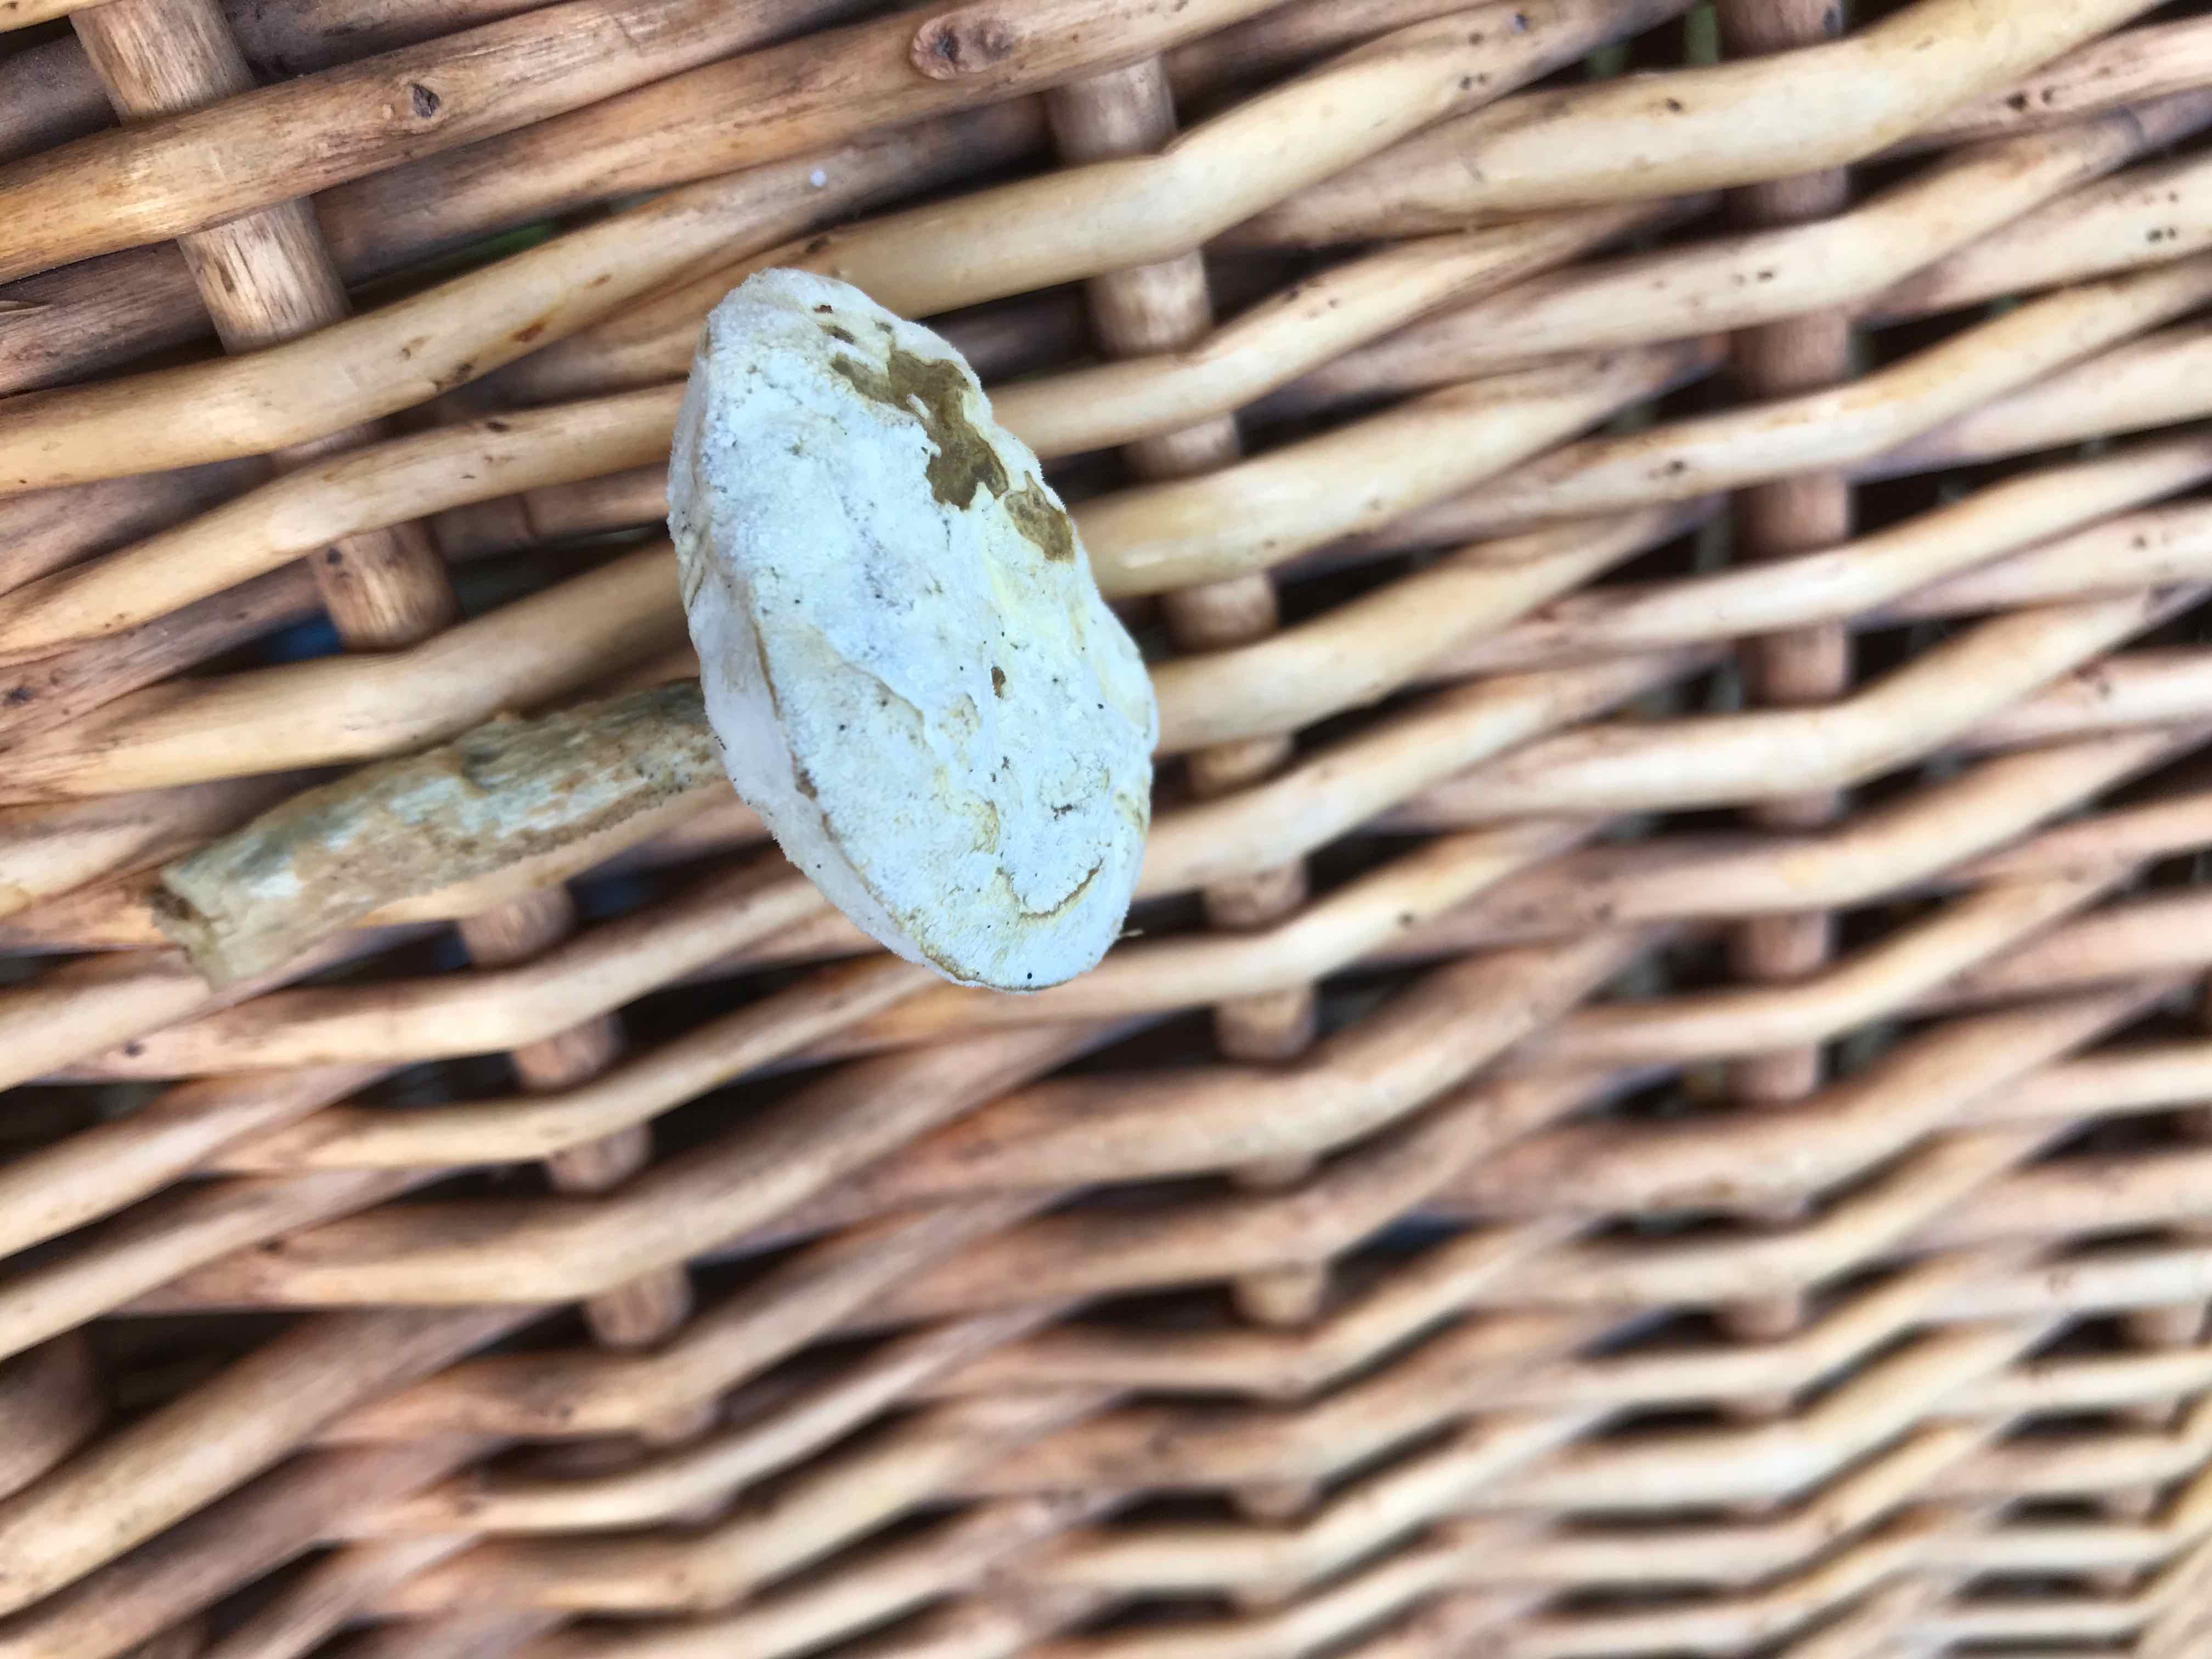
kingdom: Fungi
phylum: Basidiomycota
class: Agaricomycetes
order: Boletales
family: Boletaceae
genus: Leccinum
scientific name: Leccinum
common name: skælrørhat
